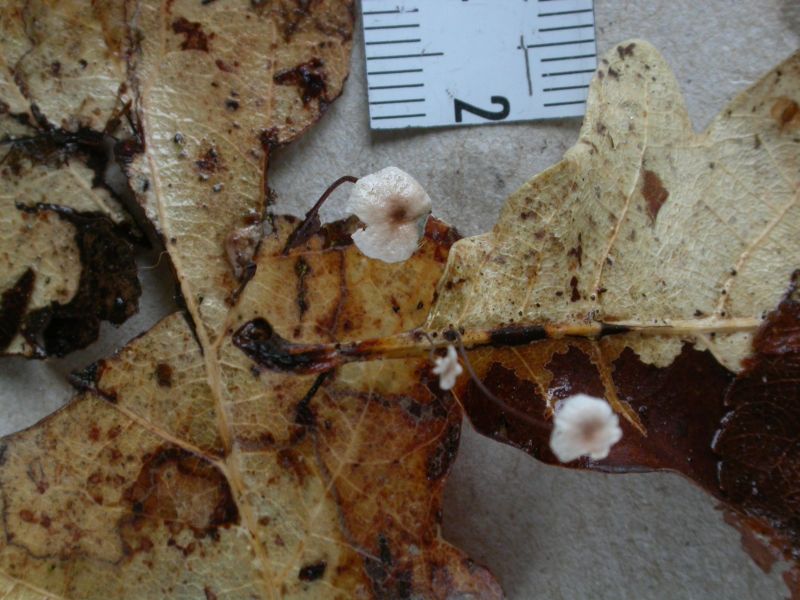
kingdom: Fungi
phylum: Basidiomycota
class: Agaricomycetes
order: Agaricales
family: Omphalotaceae
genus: Collybiopsis
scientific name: Collybiopsis quercophila
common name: egeblads-bruskhat
